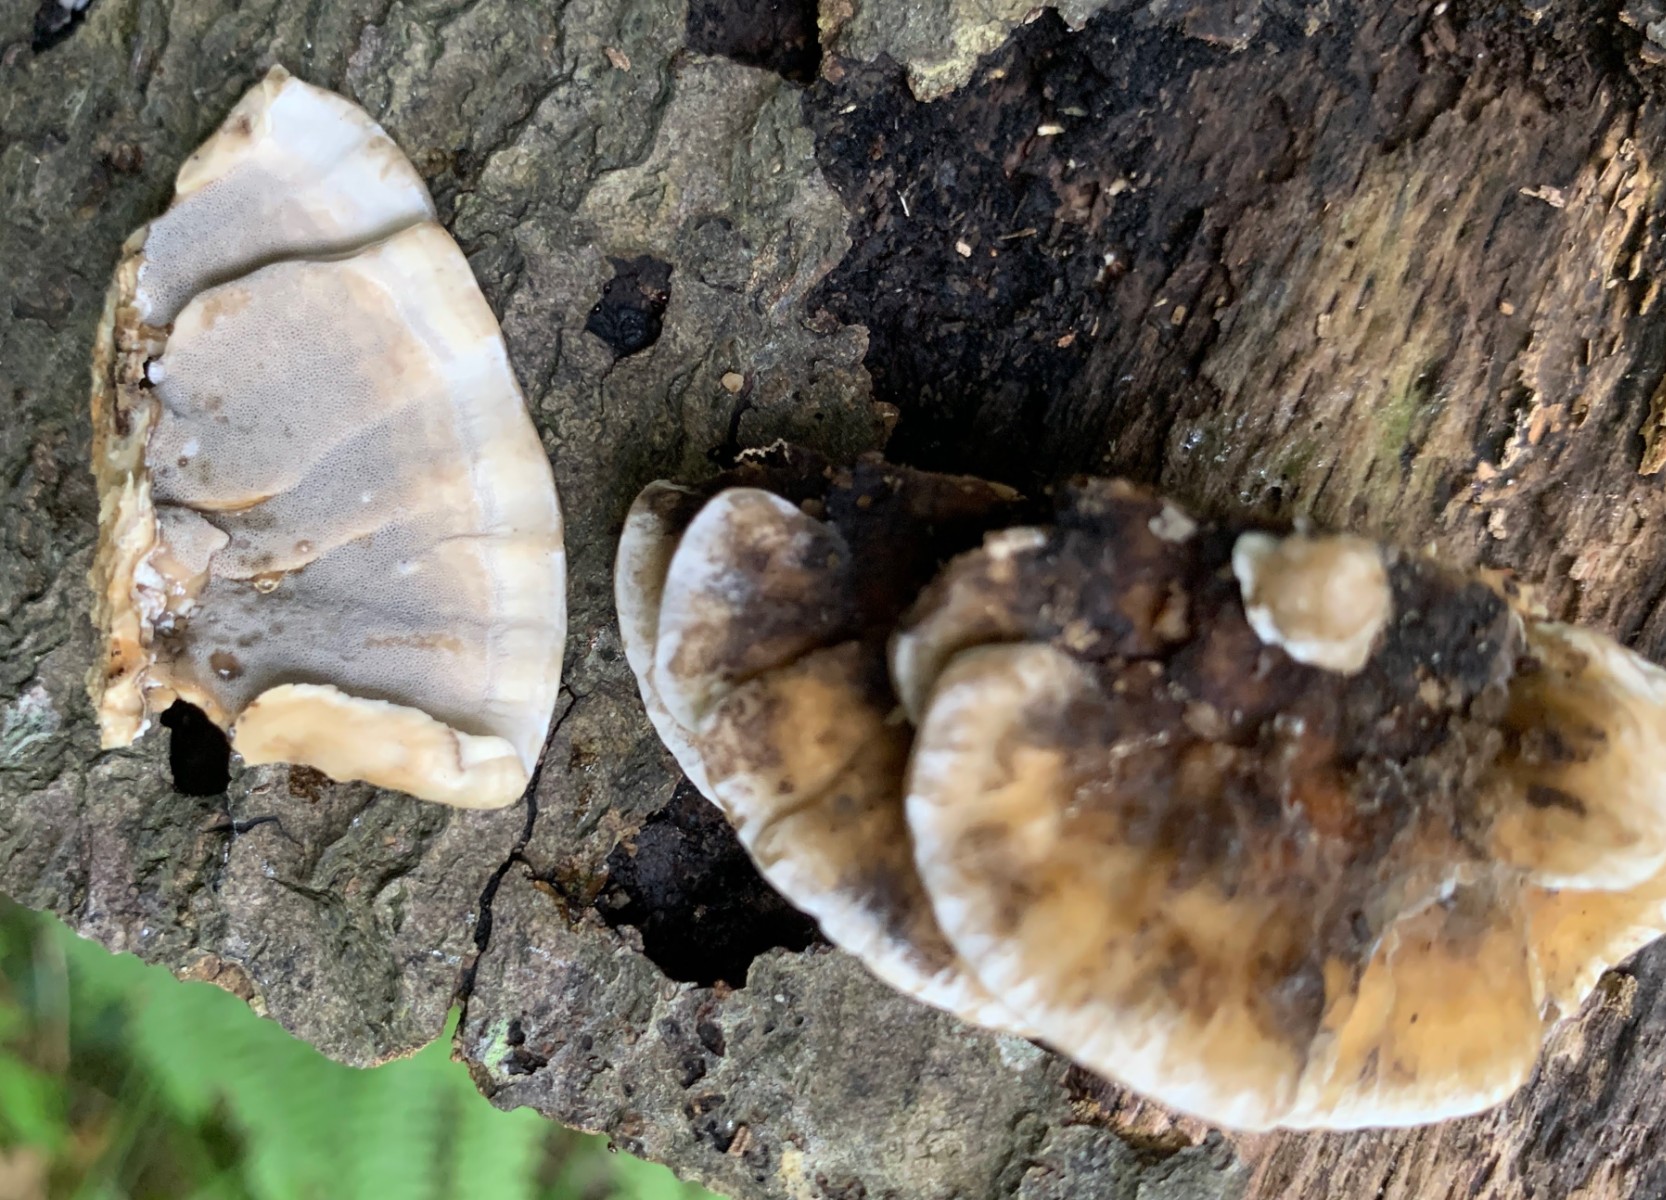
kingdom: Fungi
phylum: Basidiomycota
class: Agaricomycetes
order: Polyporales
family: Phanerochaetaceae
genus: Bjerkandera
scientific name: Bjerkandera adusta
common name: sveden sodporesvamp
